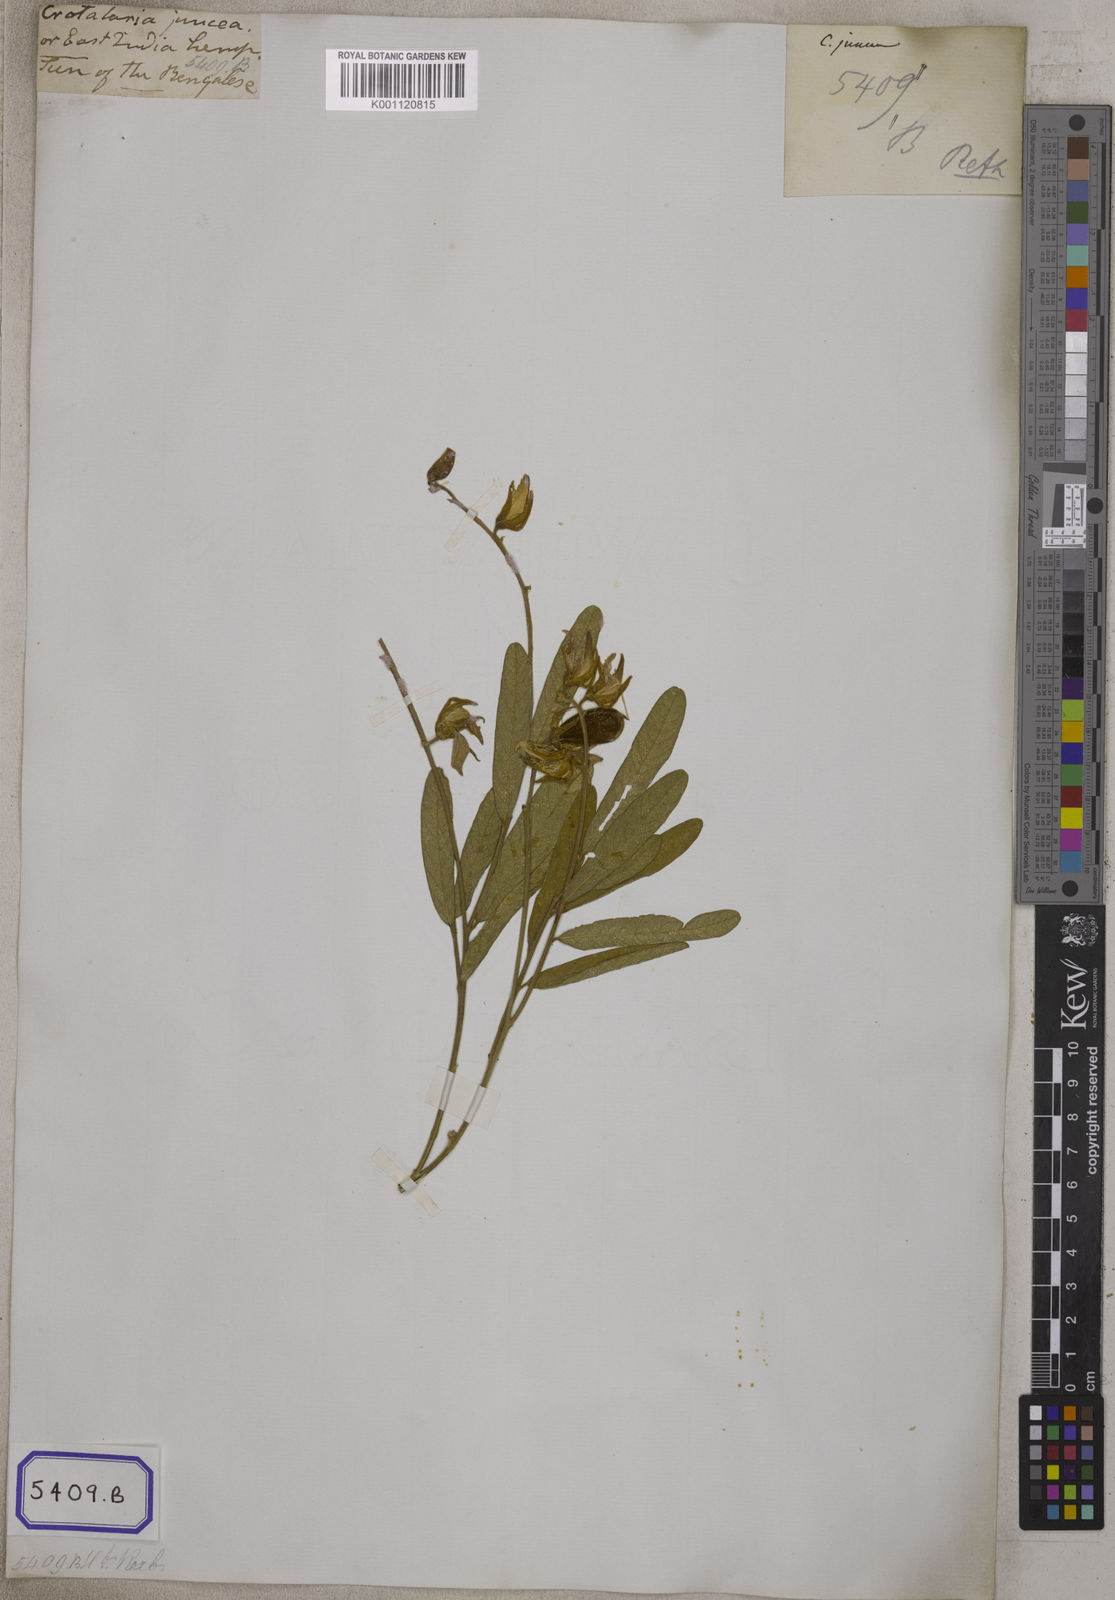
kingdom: Plantae
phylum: Tracheophyta
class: Magnoliopsida
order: Fabales
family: Fabaceae
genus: Crotalaria
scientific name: Crotalaria juncea
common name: Sunn hemp
